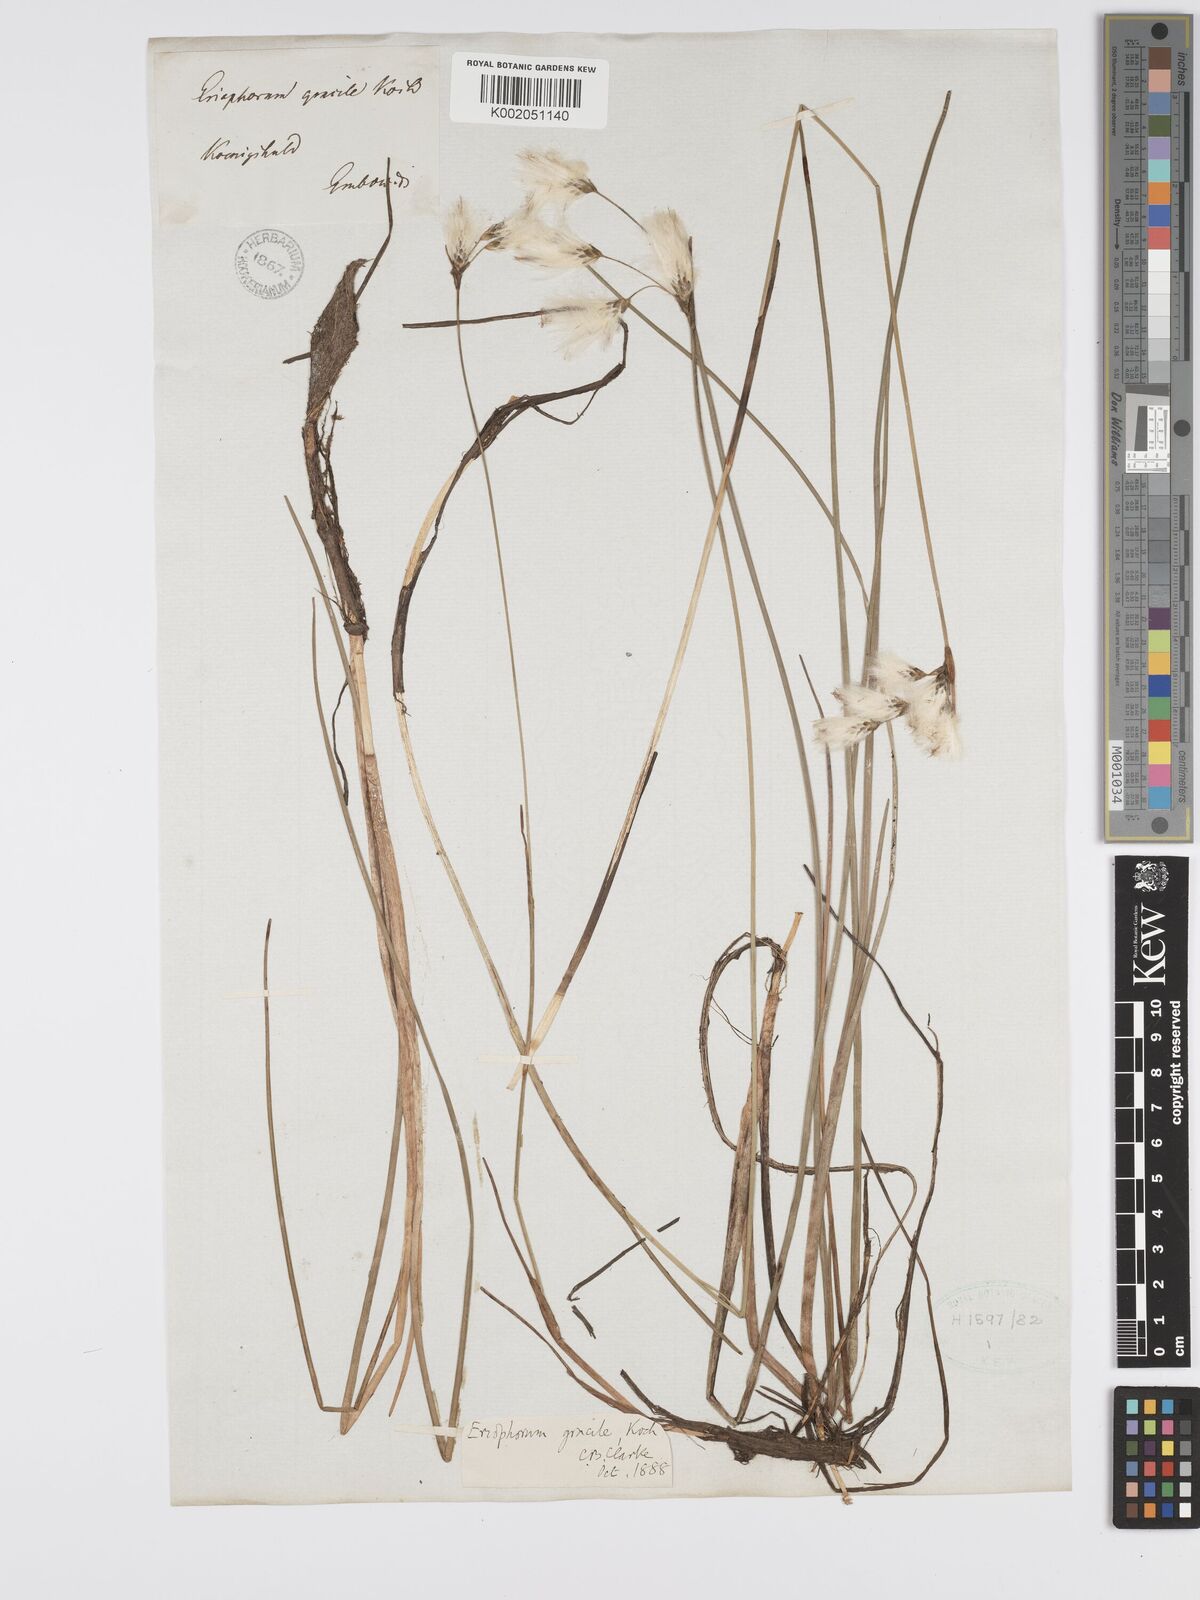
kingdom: Plantae
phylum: Tracheophyta
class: Liliopsida
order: Poales
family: Cyperaceae
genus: Eriophorum
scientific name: Eriophorum gracile
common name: Slender cottongrass
